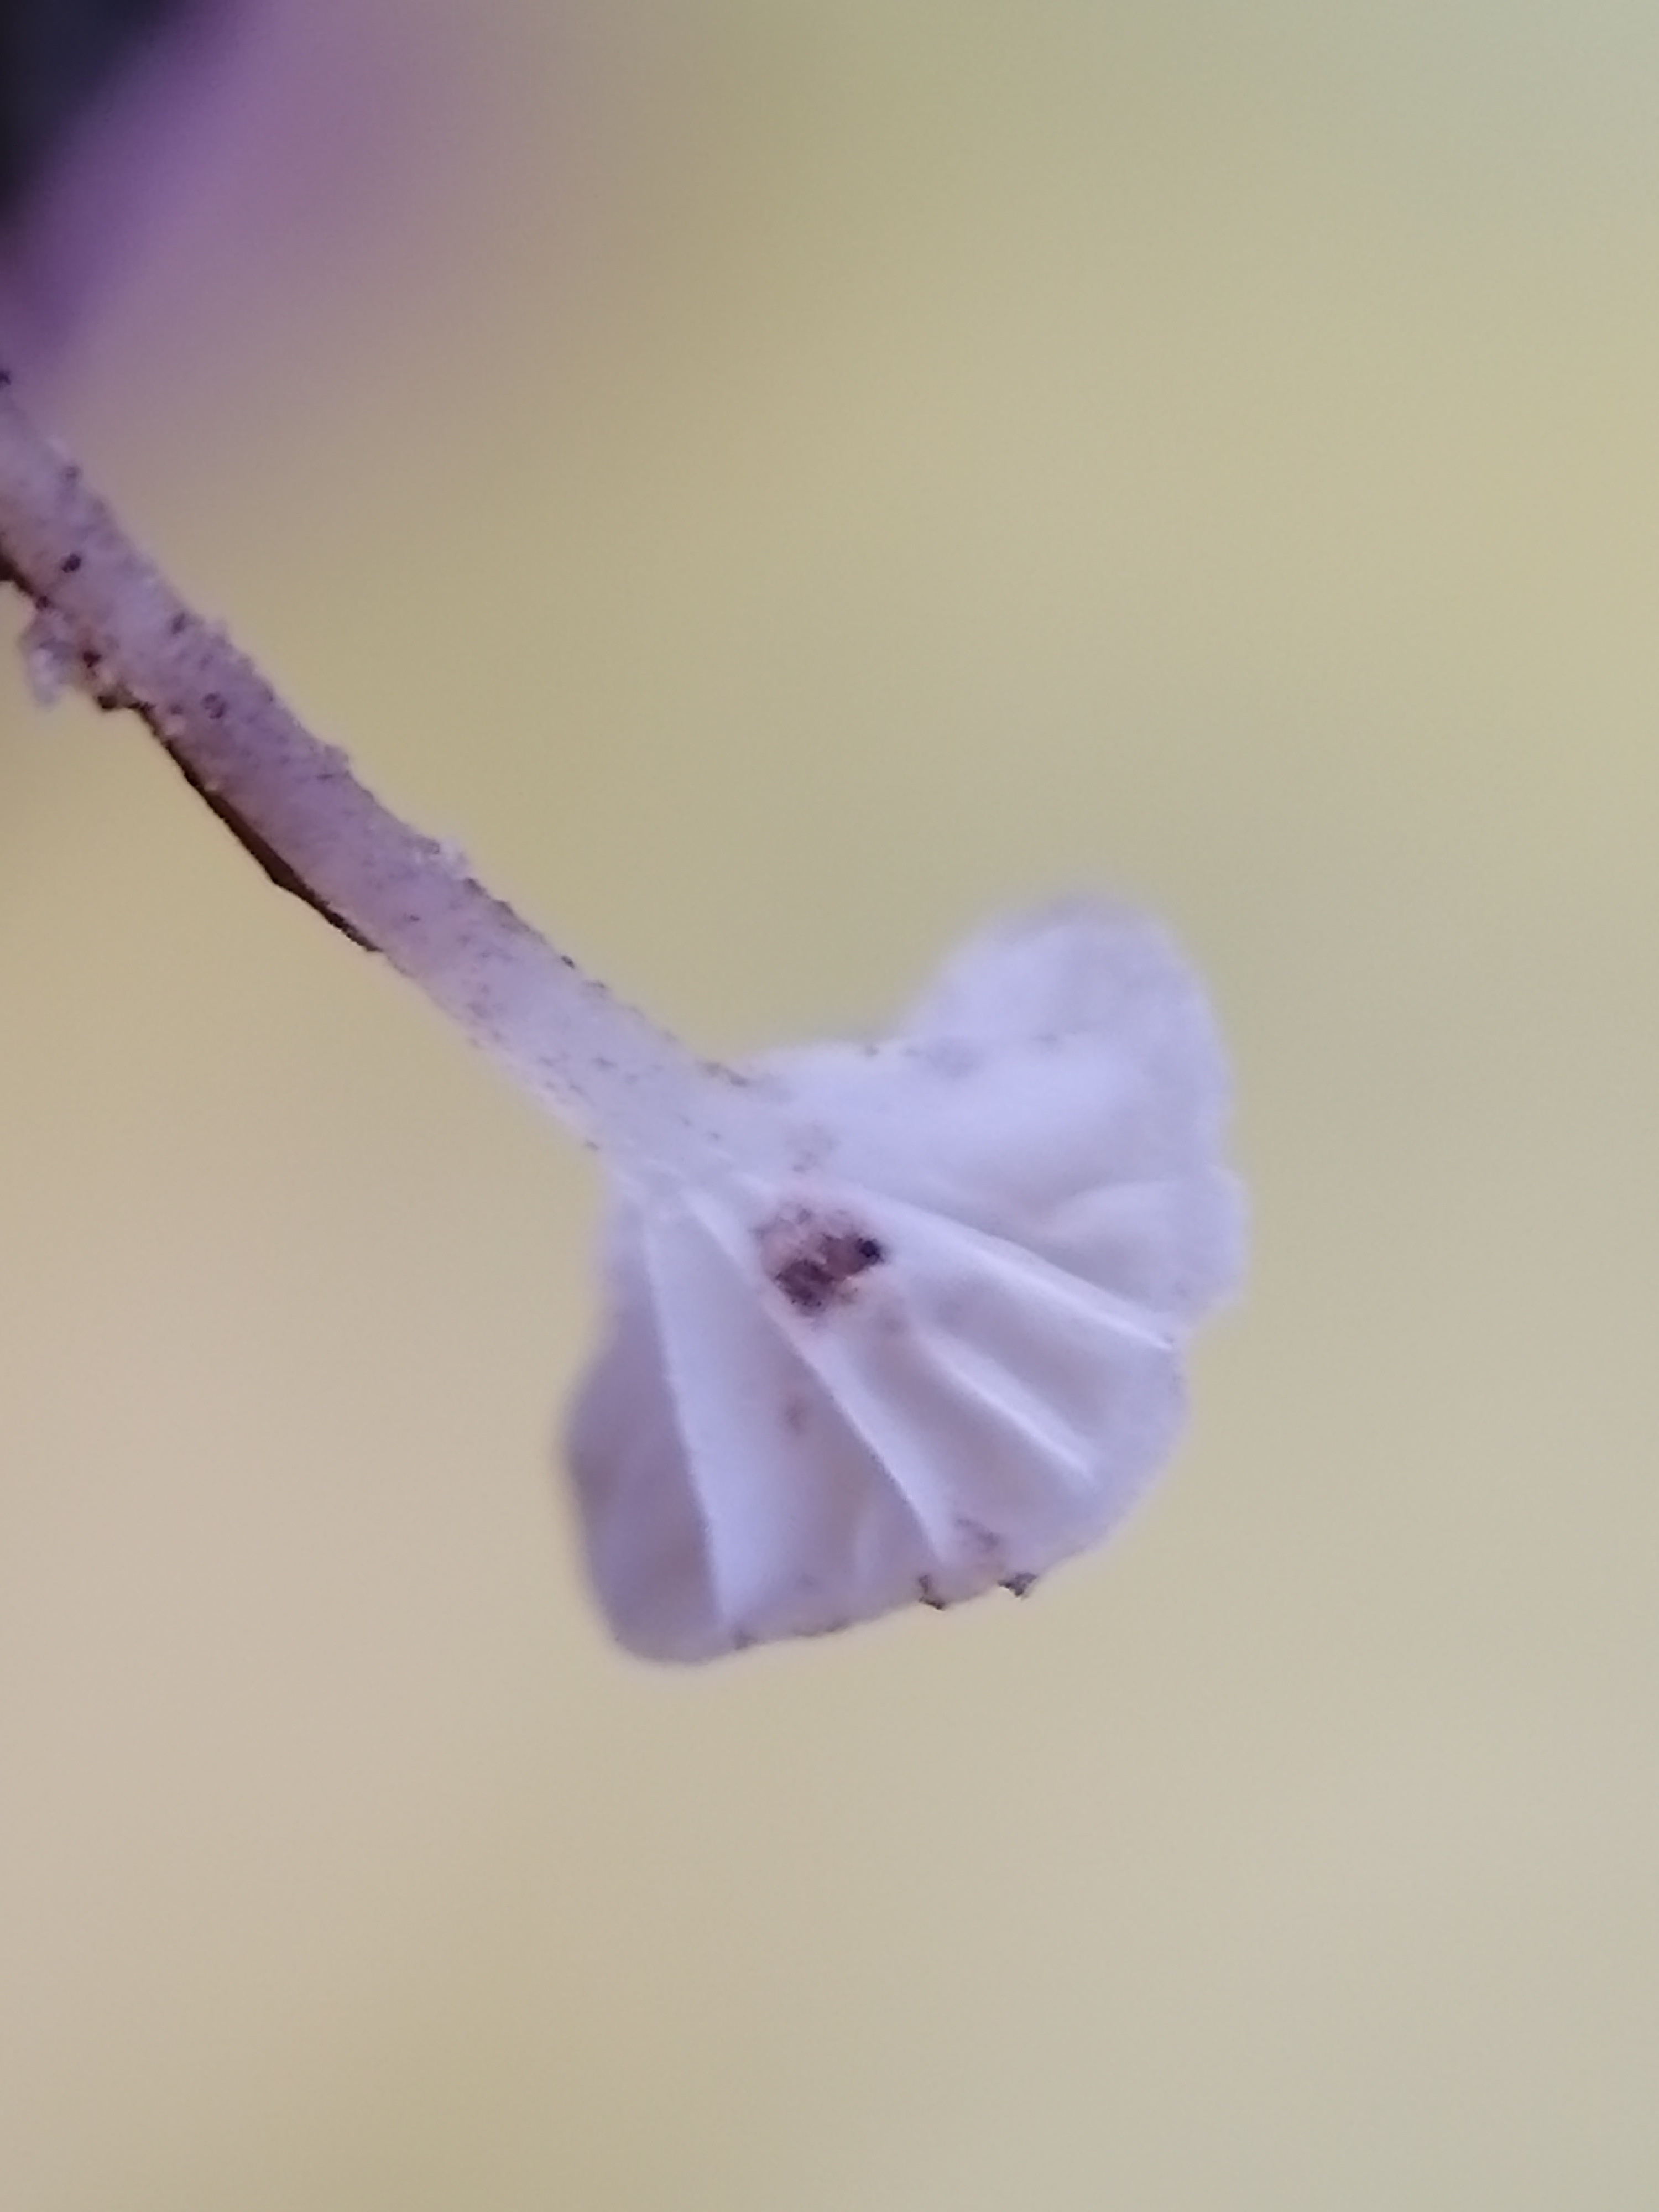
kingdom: Fungi
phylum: Basidiomycota
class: Agaricomycetes
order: Agaricales
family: Porotheleaceae
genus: Phloeomana
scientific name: Phloeomana speirea
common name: kvist-huesvamp
